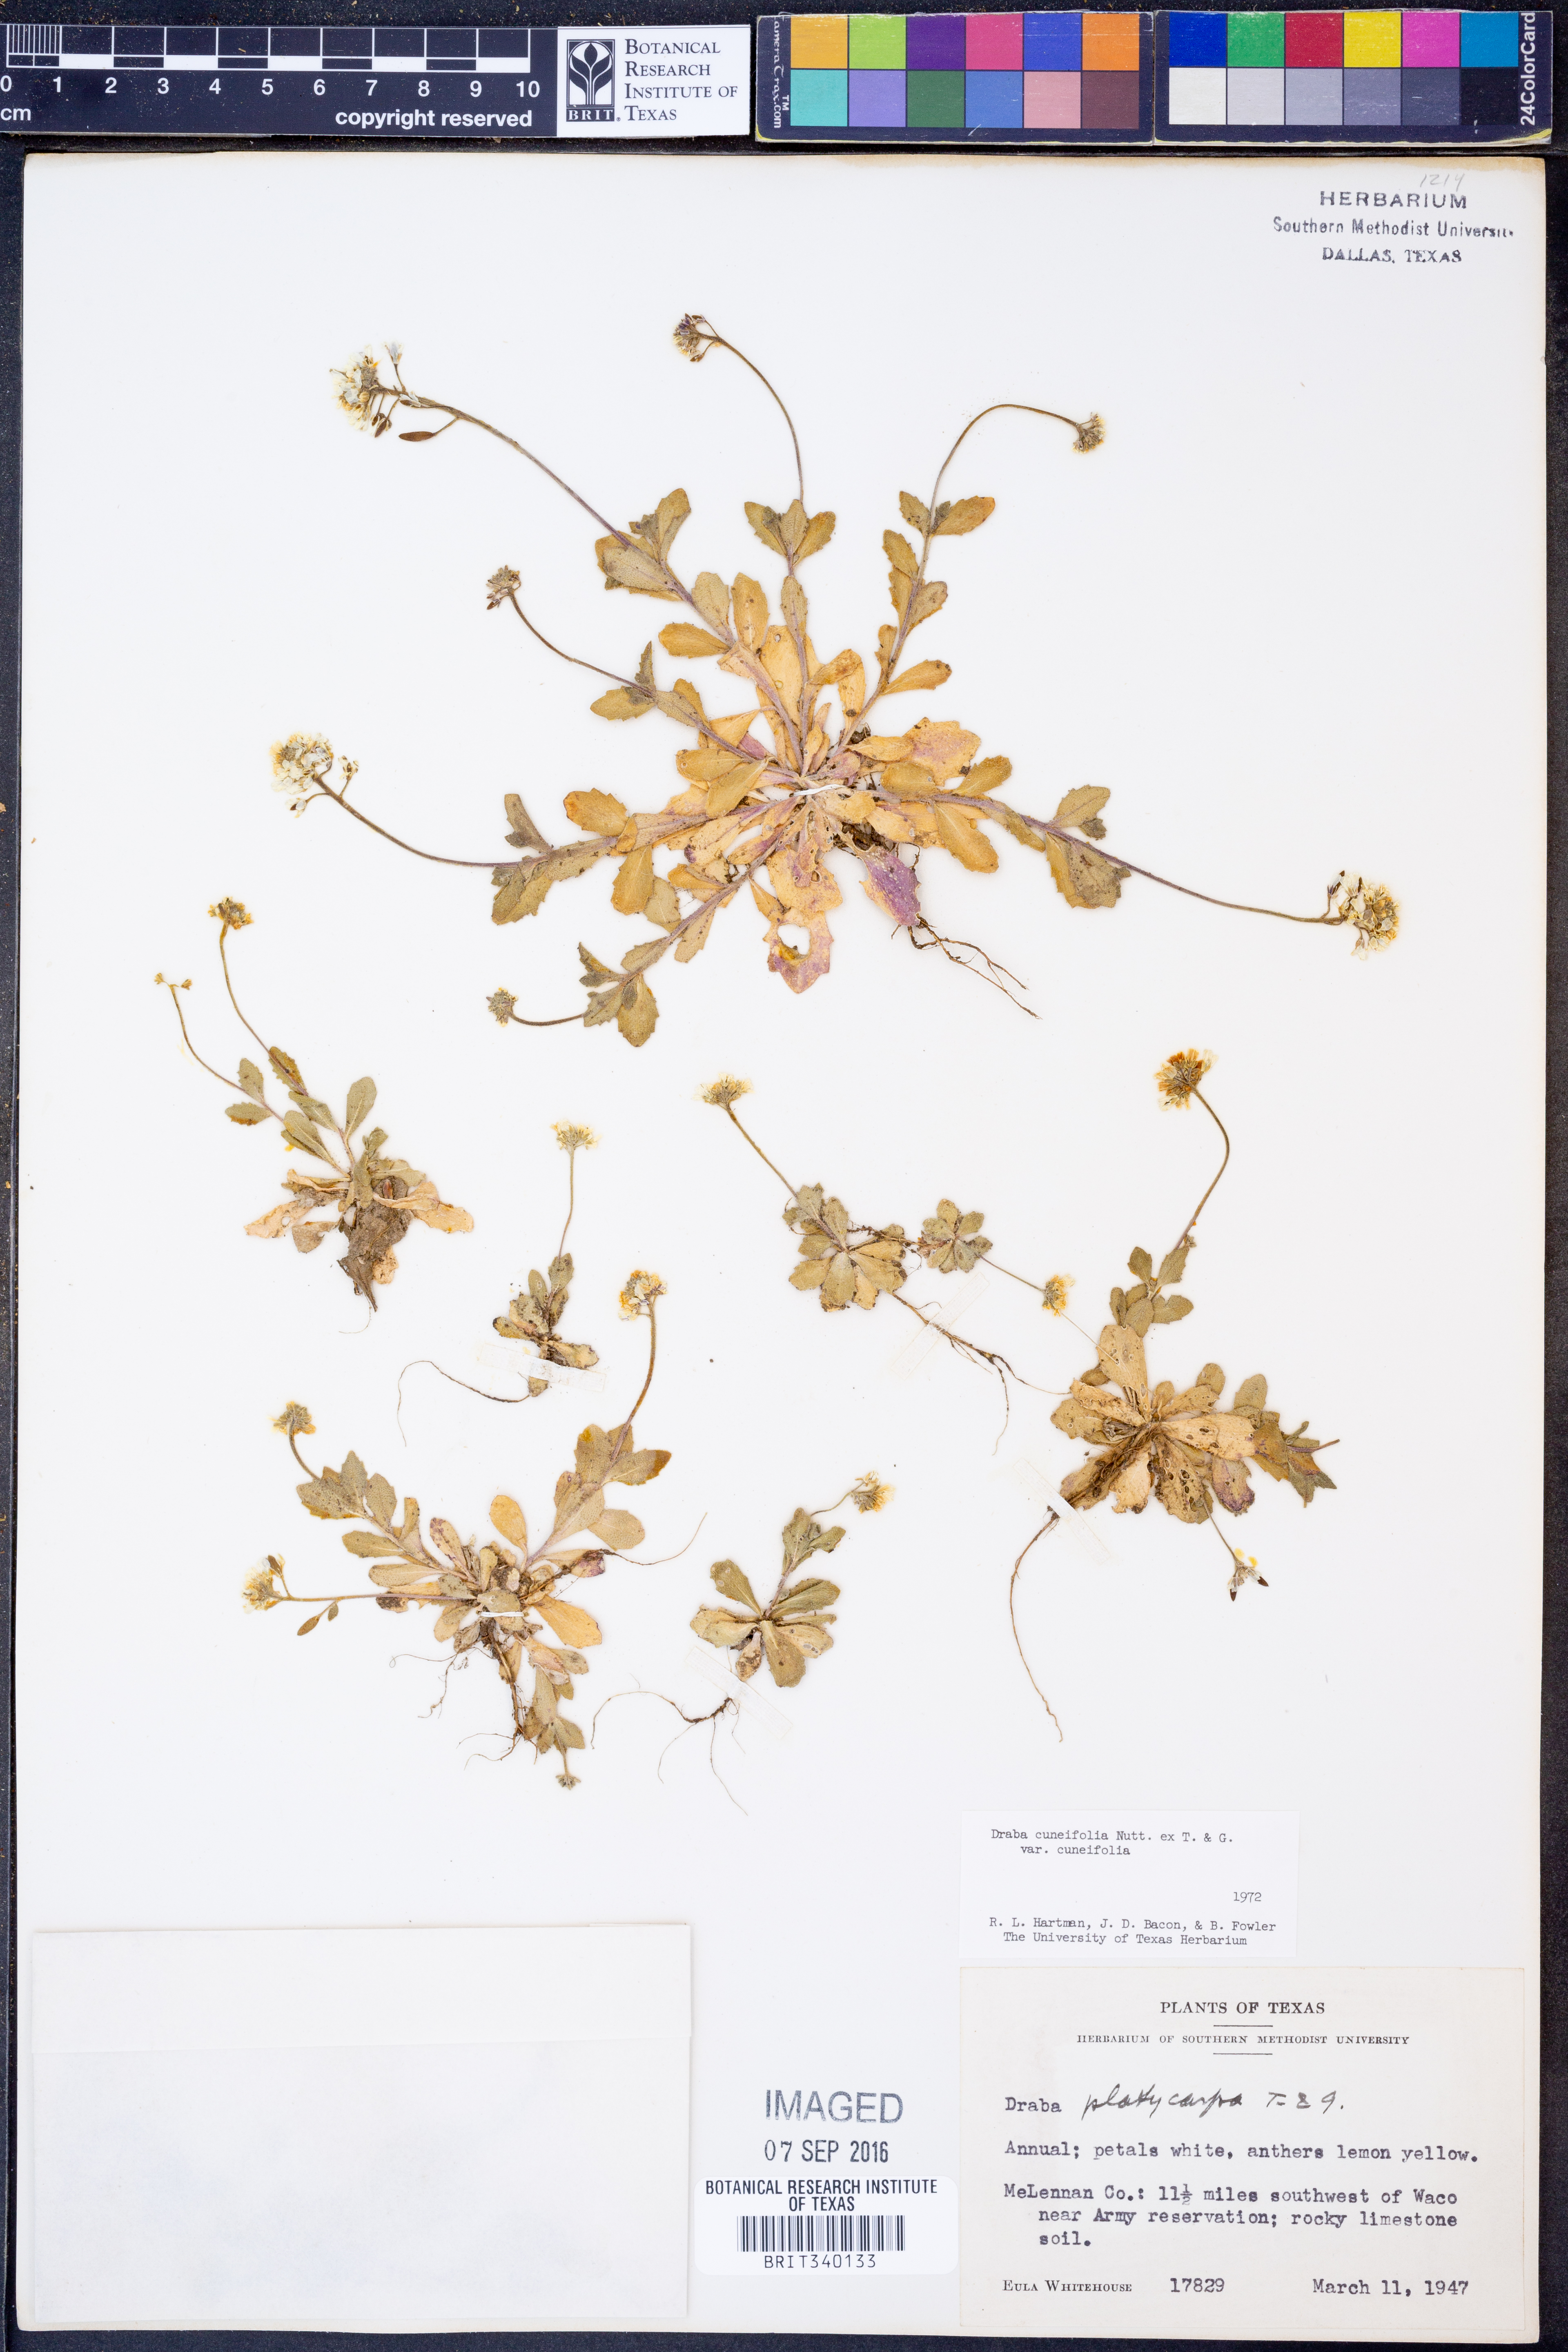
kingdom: Plantae
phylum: Tracheophyta
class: Magnoliopsida
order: Brassicales
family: Brassicaceae
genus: Tomostima
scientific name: Tomostima cuneifolia
